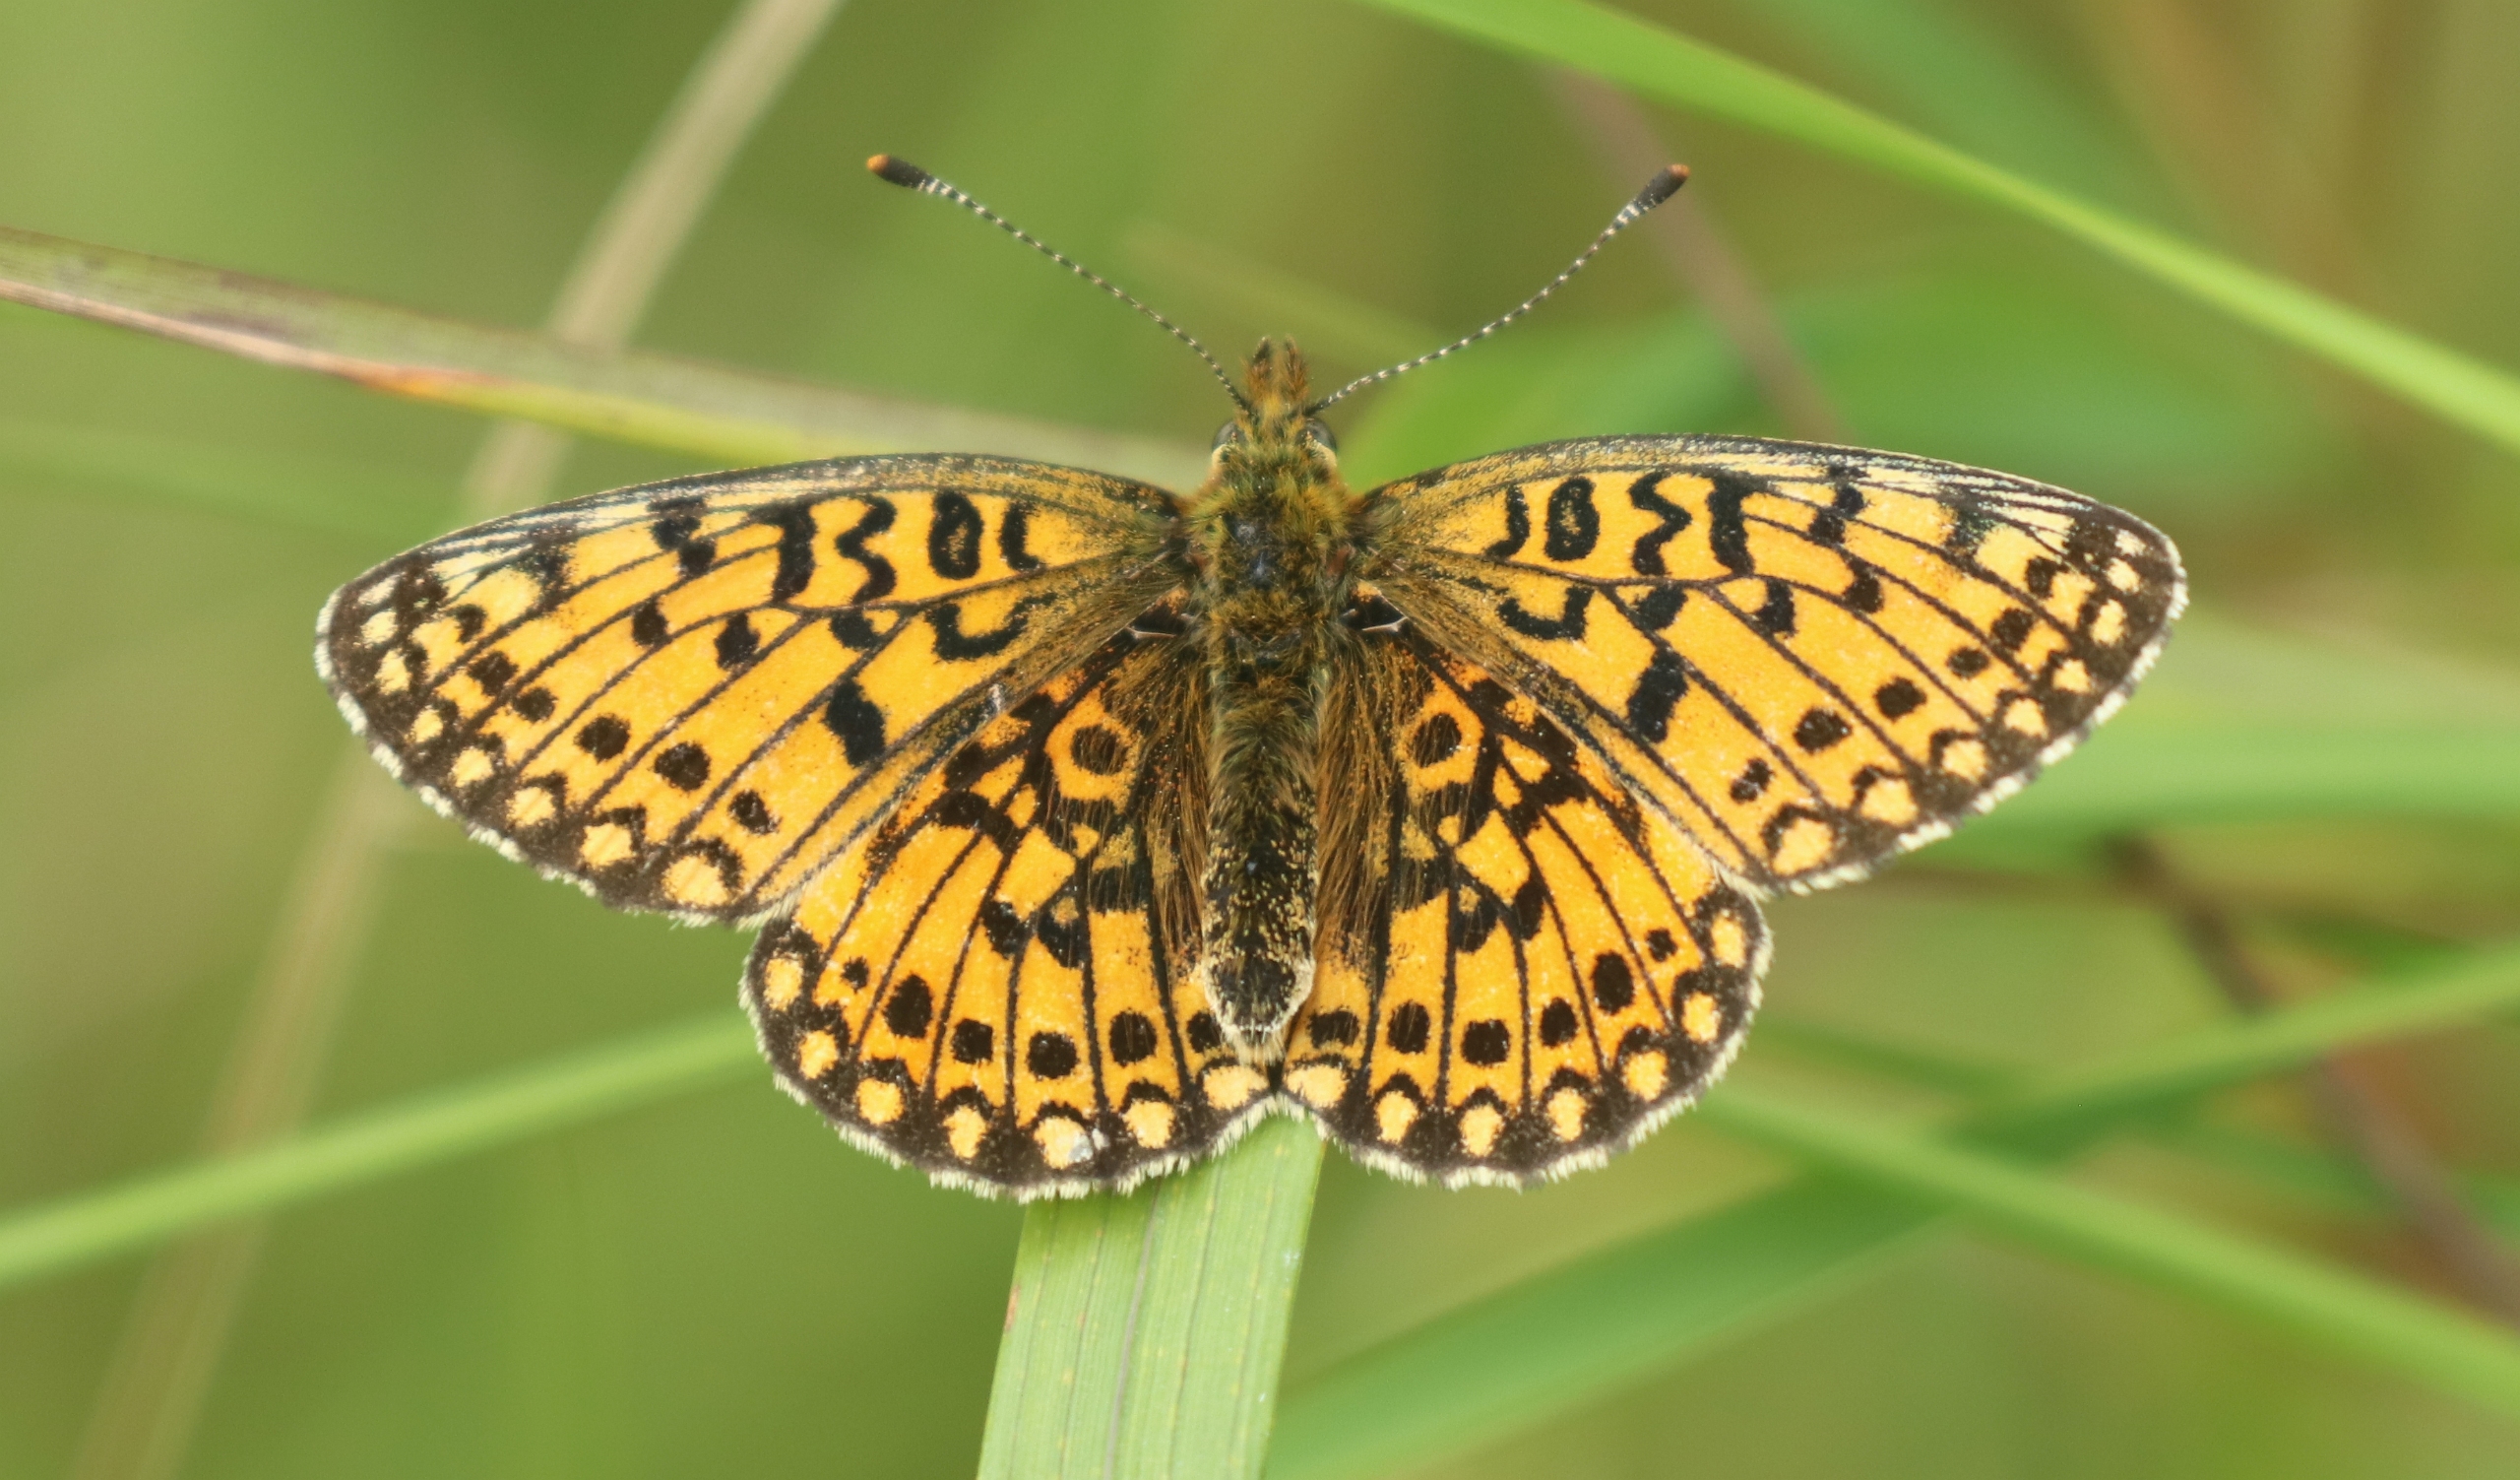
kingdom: Animalia
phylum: Arthropoda
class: Insecta
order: Lepidoptera
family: Nymphalidae
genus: Boloria
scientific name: Boloria selene
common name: Brunlig perlemorsommerfugl
